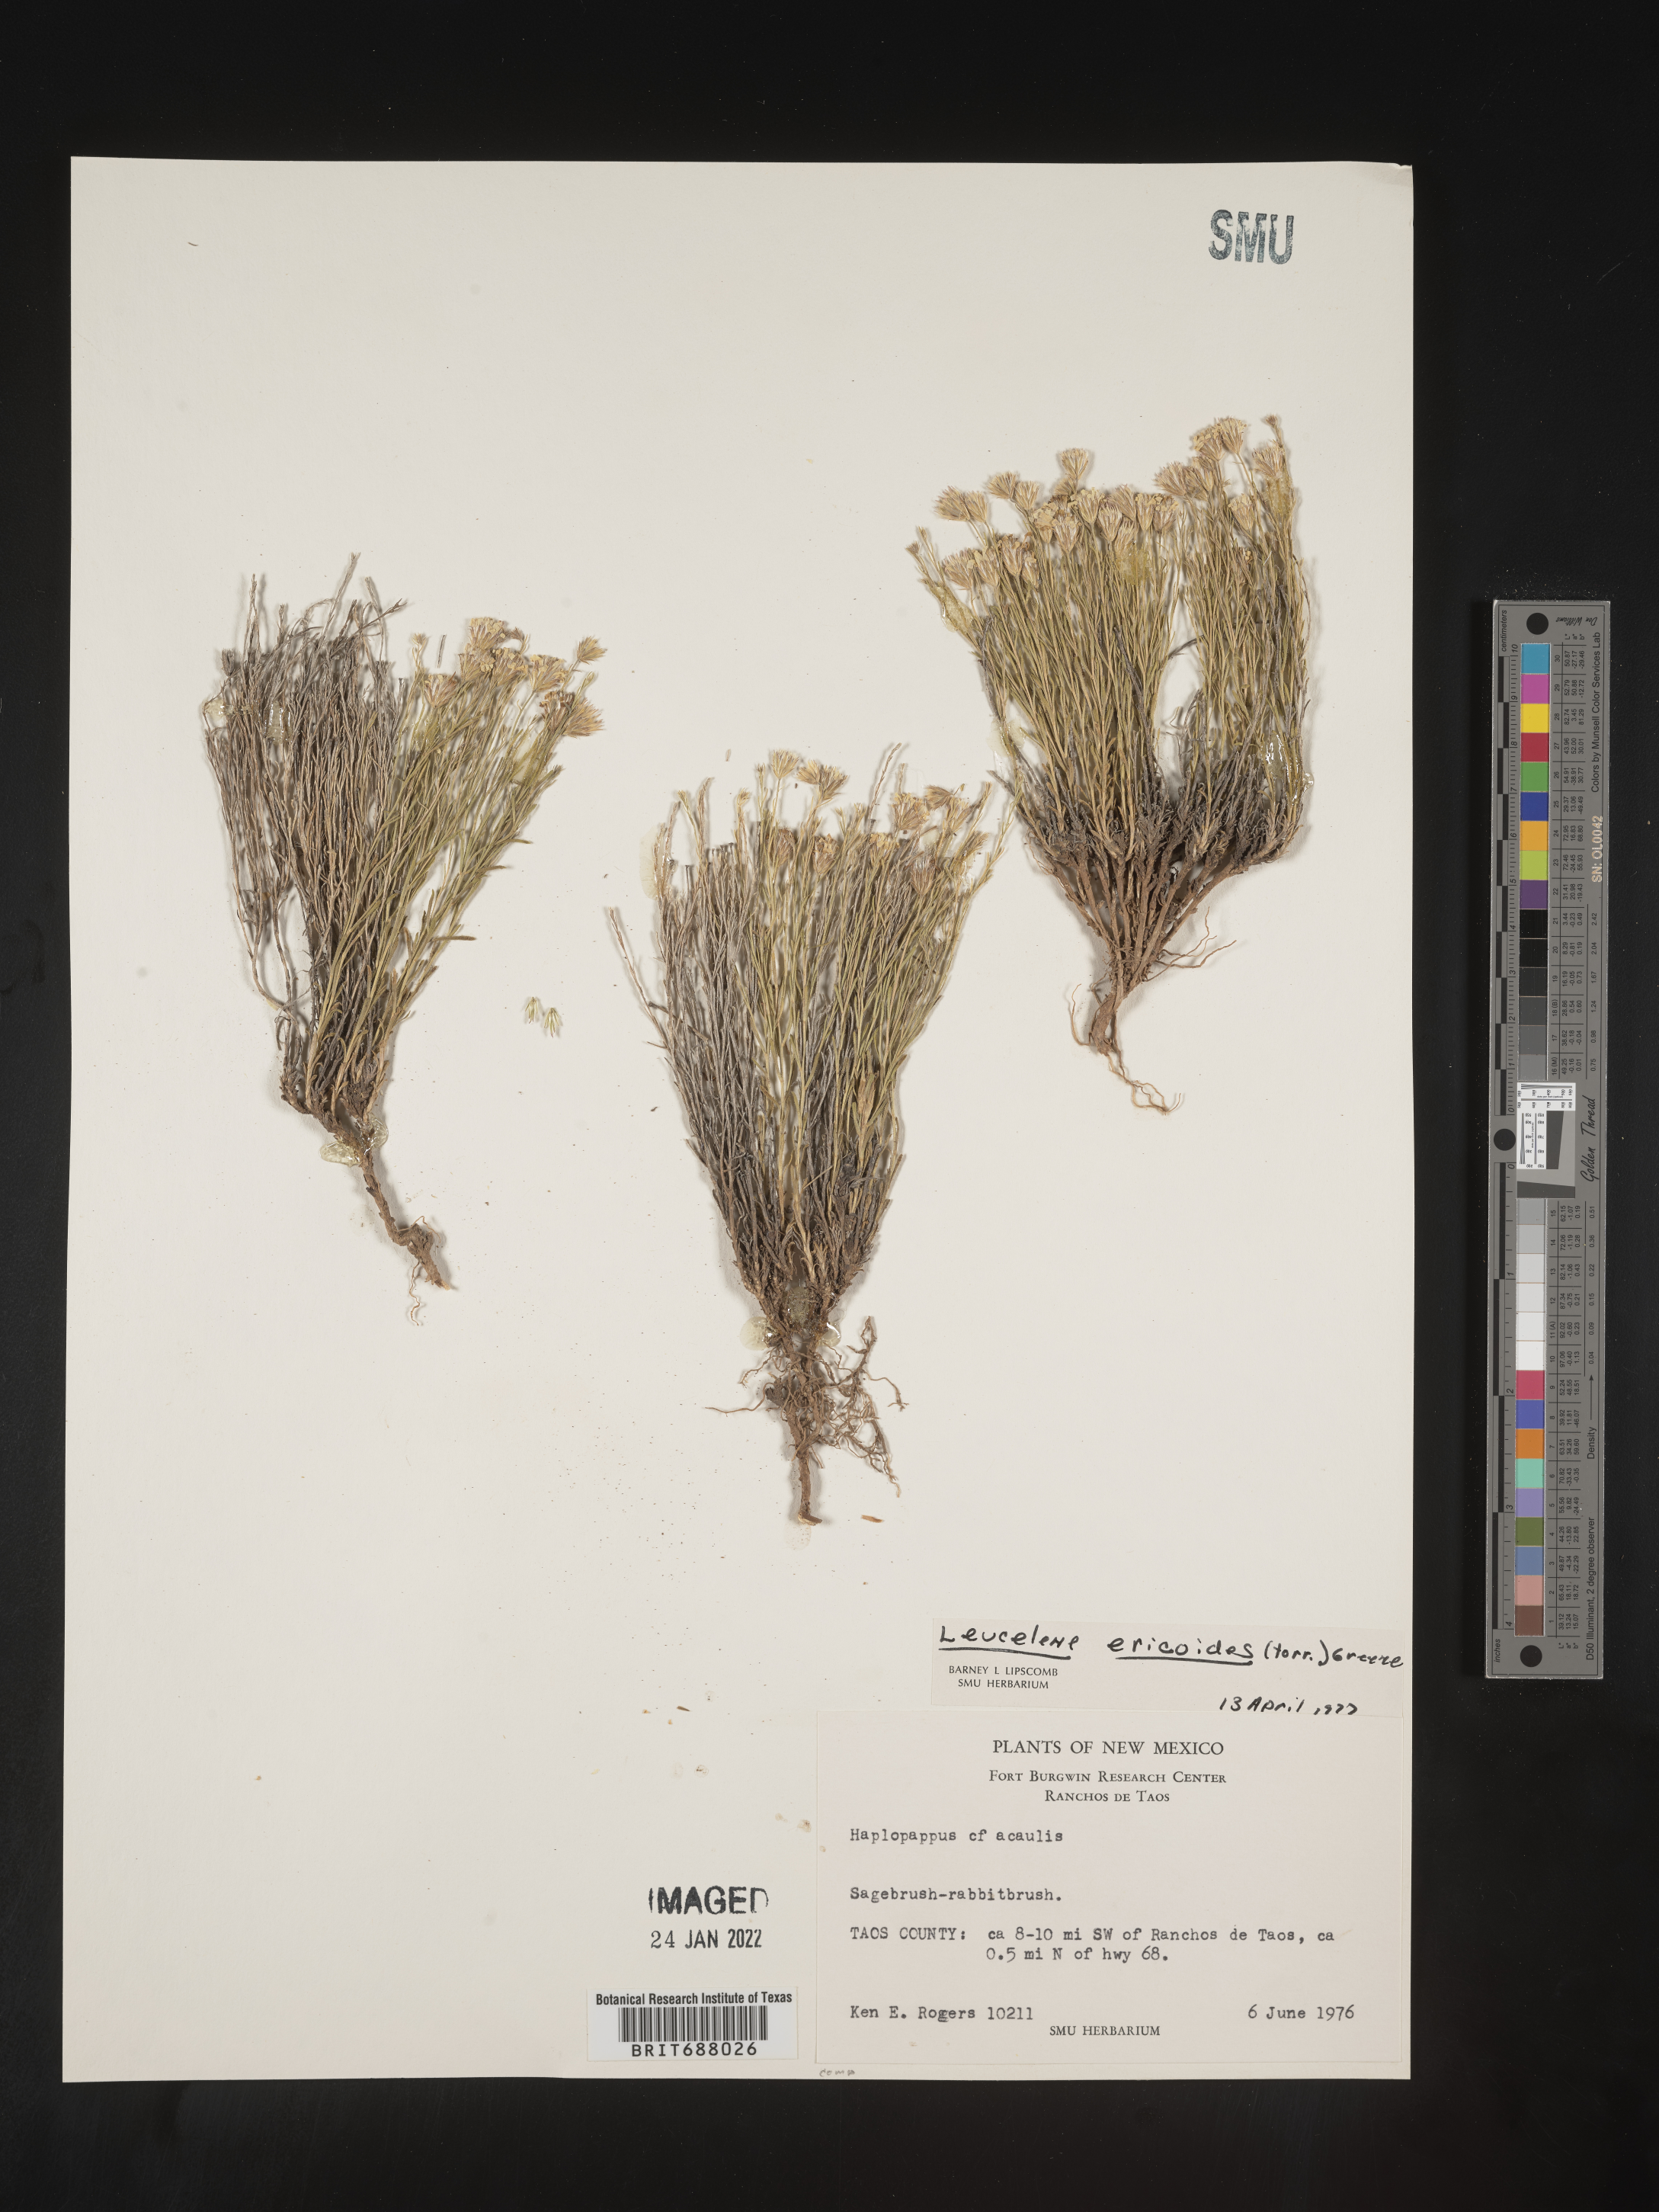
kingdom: Plantae
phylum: Tracheophyta
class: Magnoliopsida
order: Asterales
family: Asteraceae
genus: Chaetopappa
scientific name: Chaetopappa ericoides
